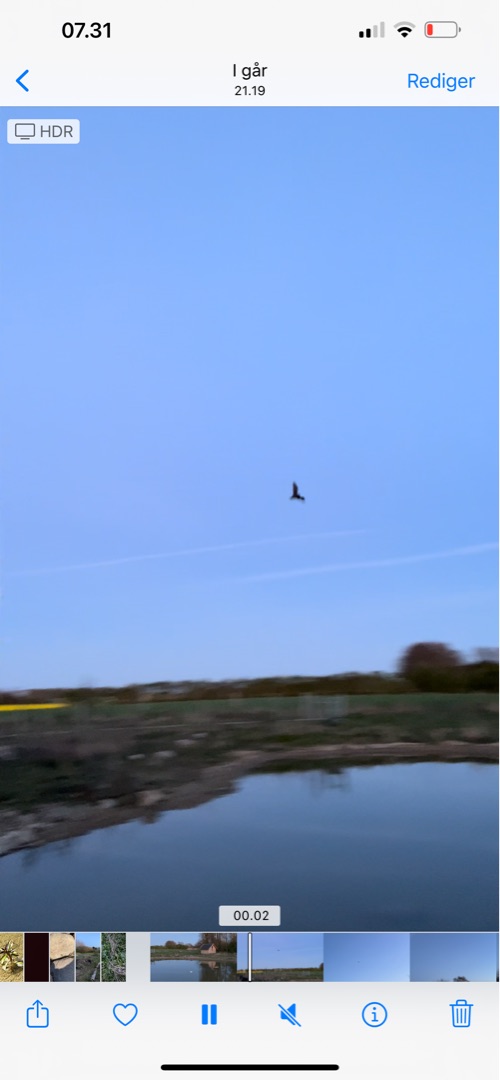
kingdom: Animalia
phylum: Chordata
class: Mammalia
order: Chiroptera
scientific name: Chiroptera
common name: Flagermus
